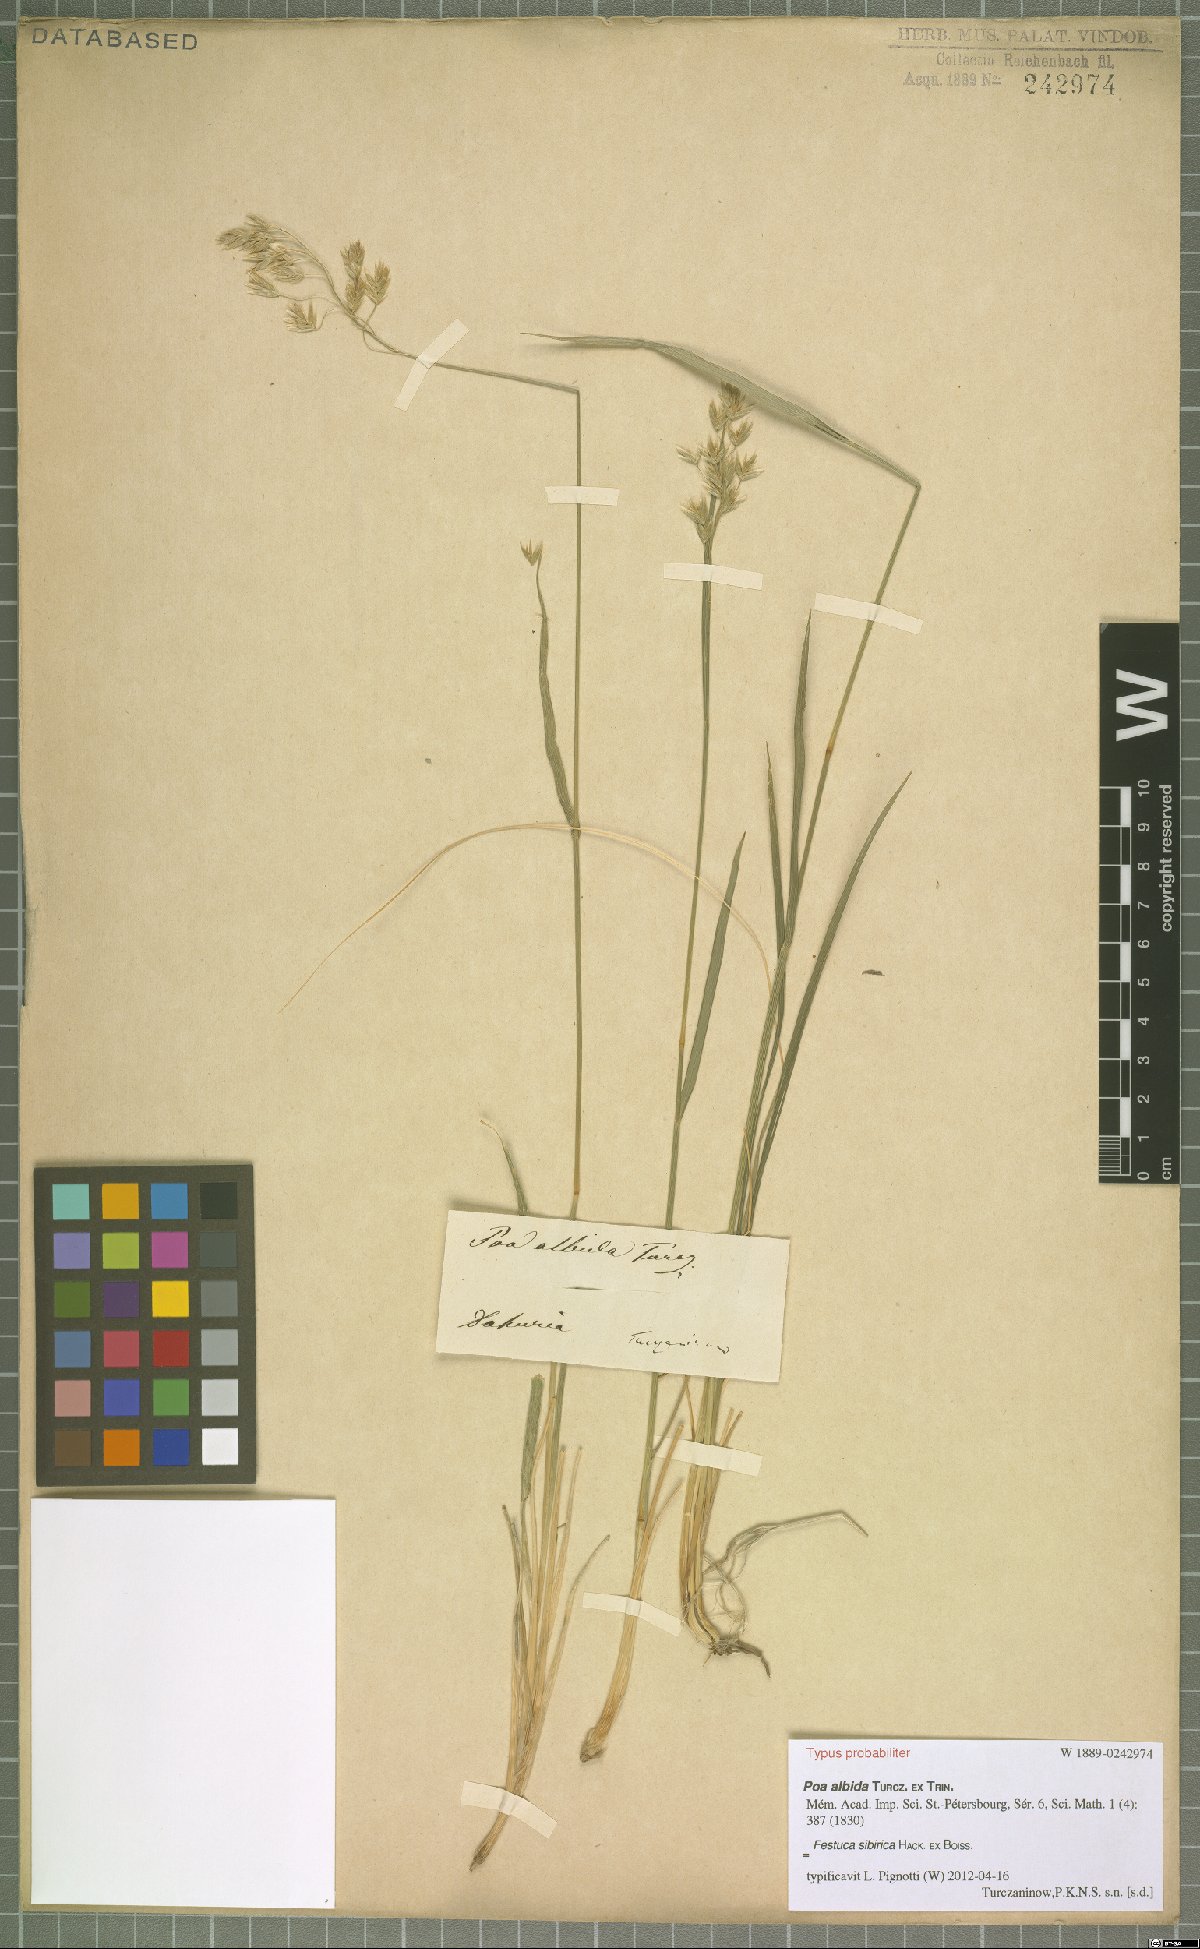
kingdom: Plantae
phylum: Tracheophyta
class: Liliopsida
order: Poales
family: Poaceae
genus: Festuca
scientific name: Festuca sibirica
